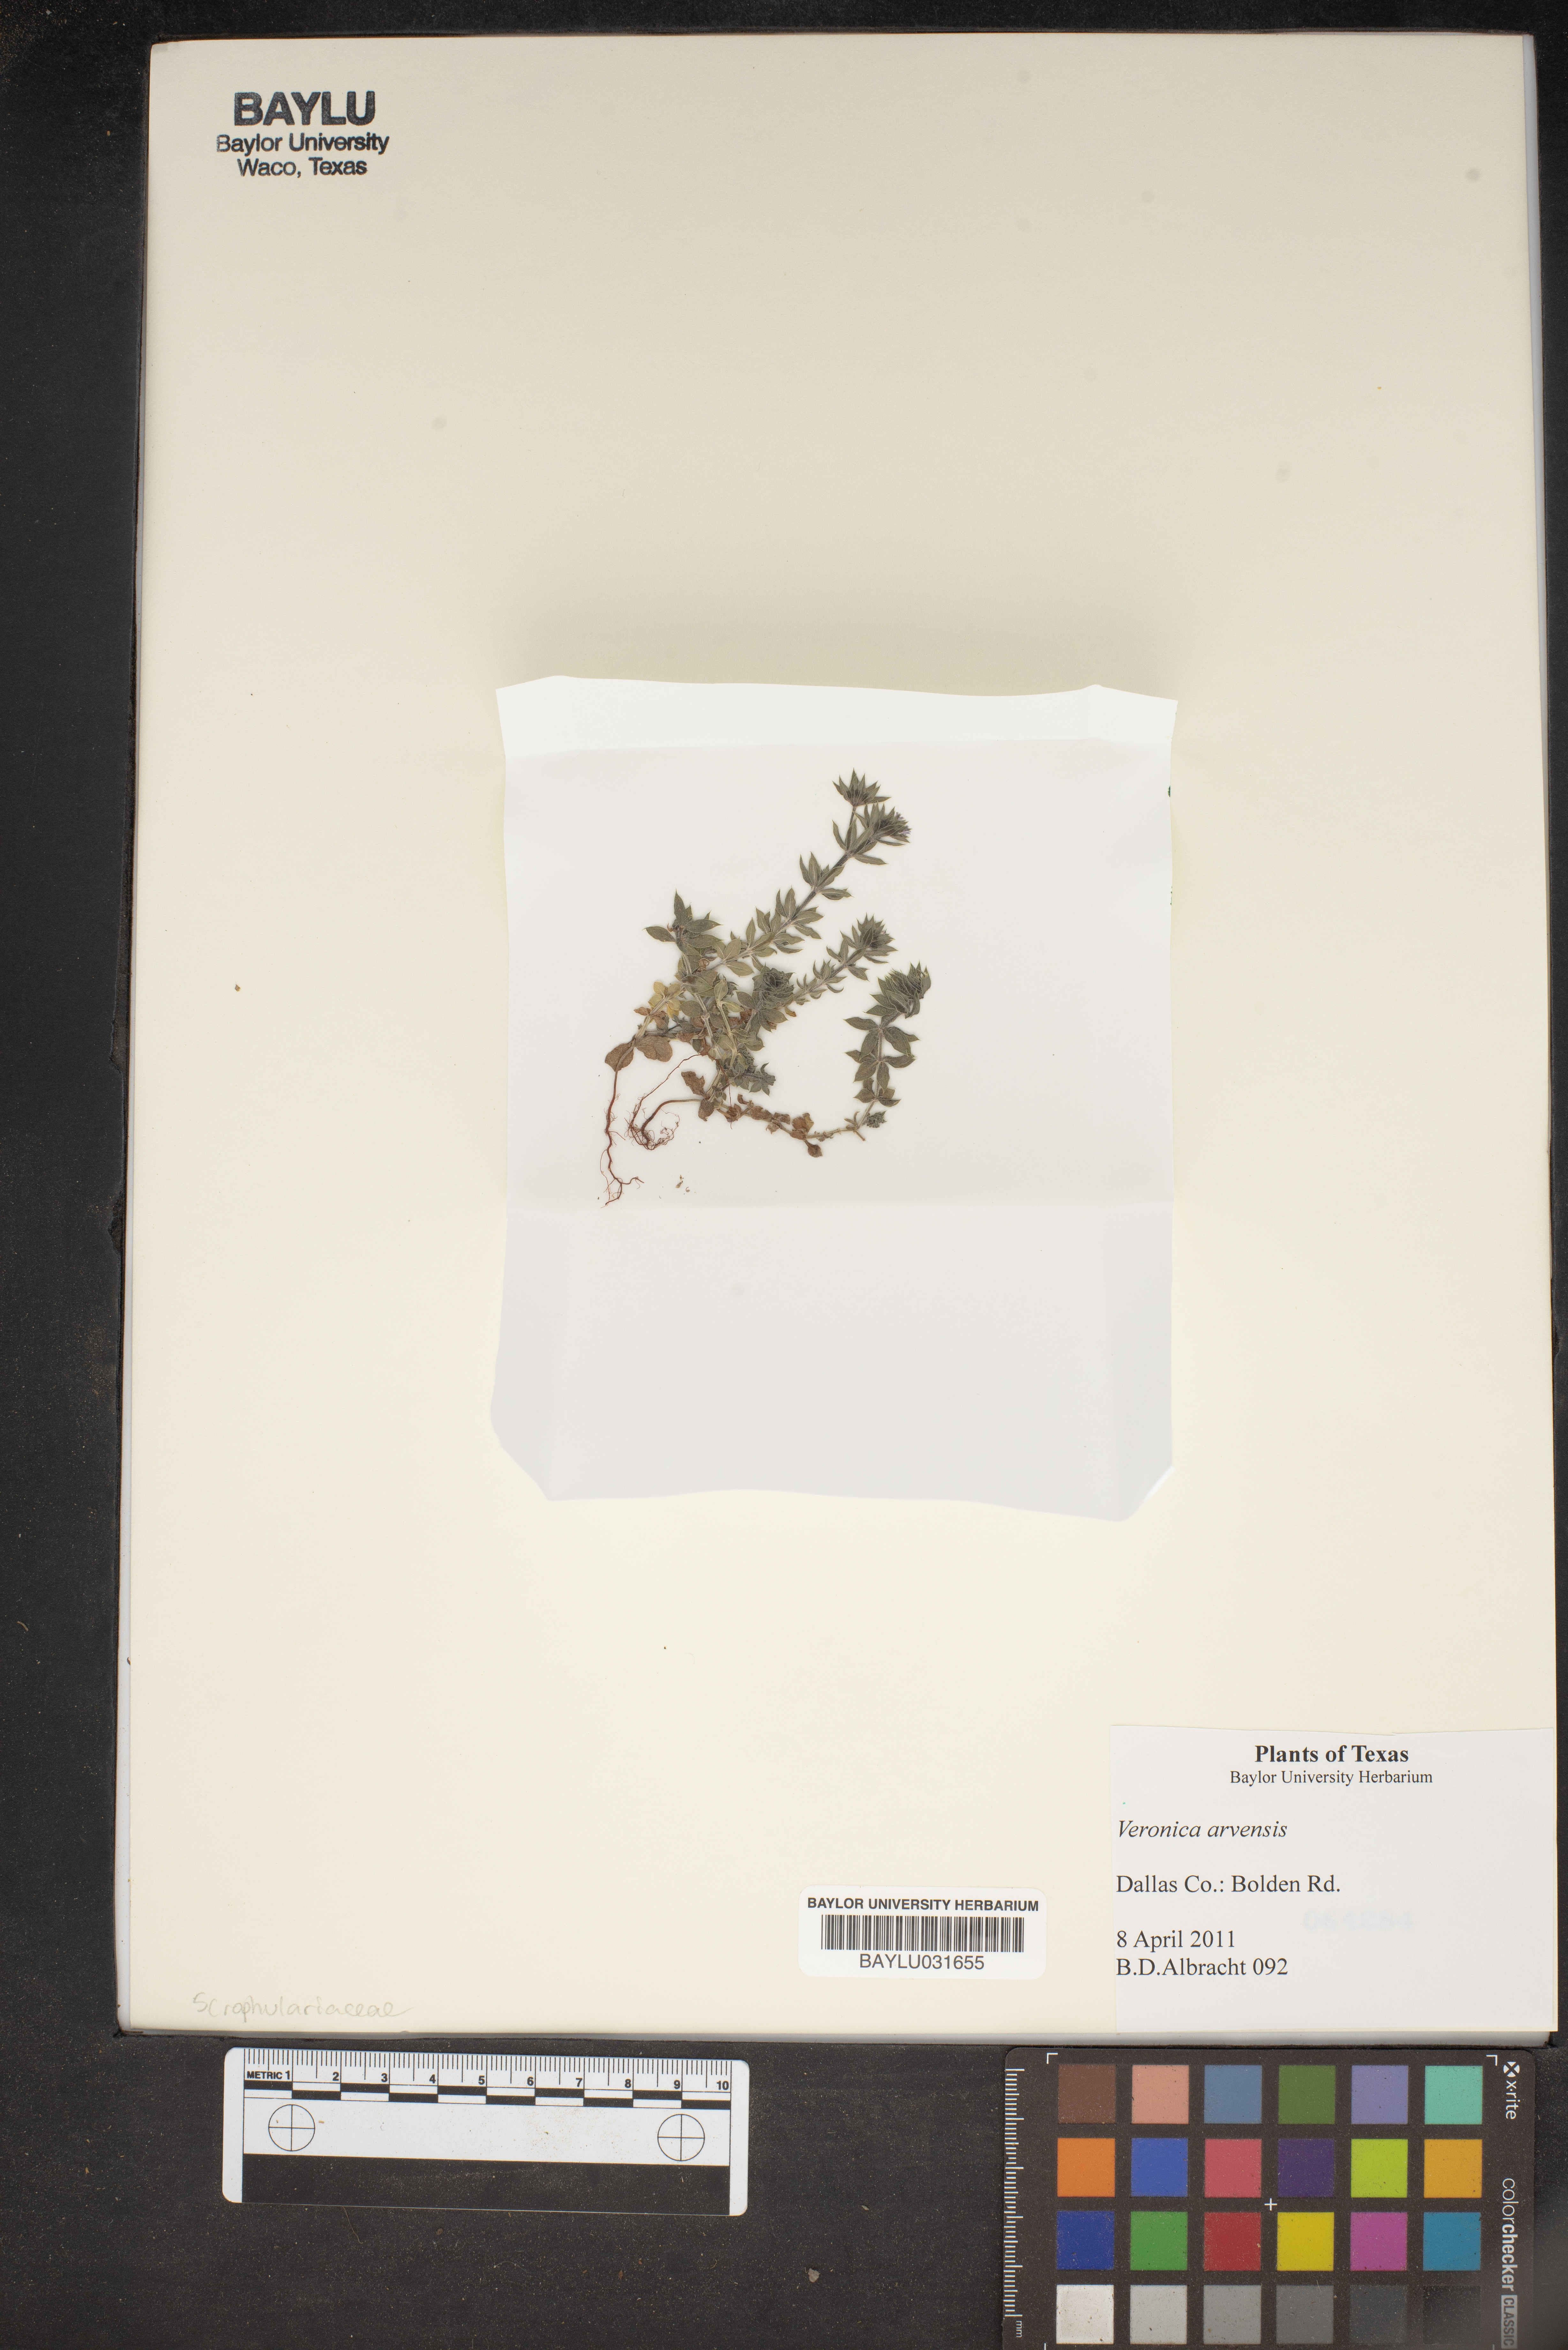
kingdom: Plantae
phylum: Tracheophyta
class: Magnoliopsida
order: Lamiales
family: Plantaginaceae
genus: Veronica
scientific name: Veronica arvensis
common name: Corn speedwell
